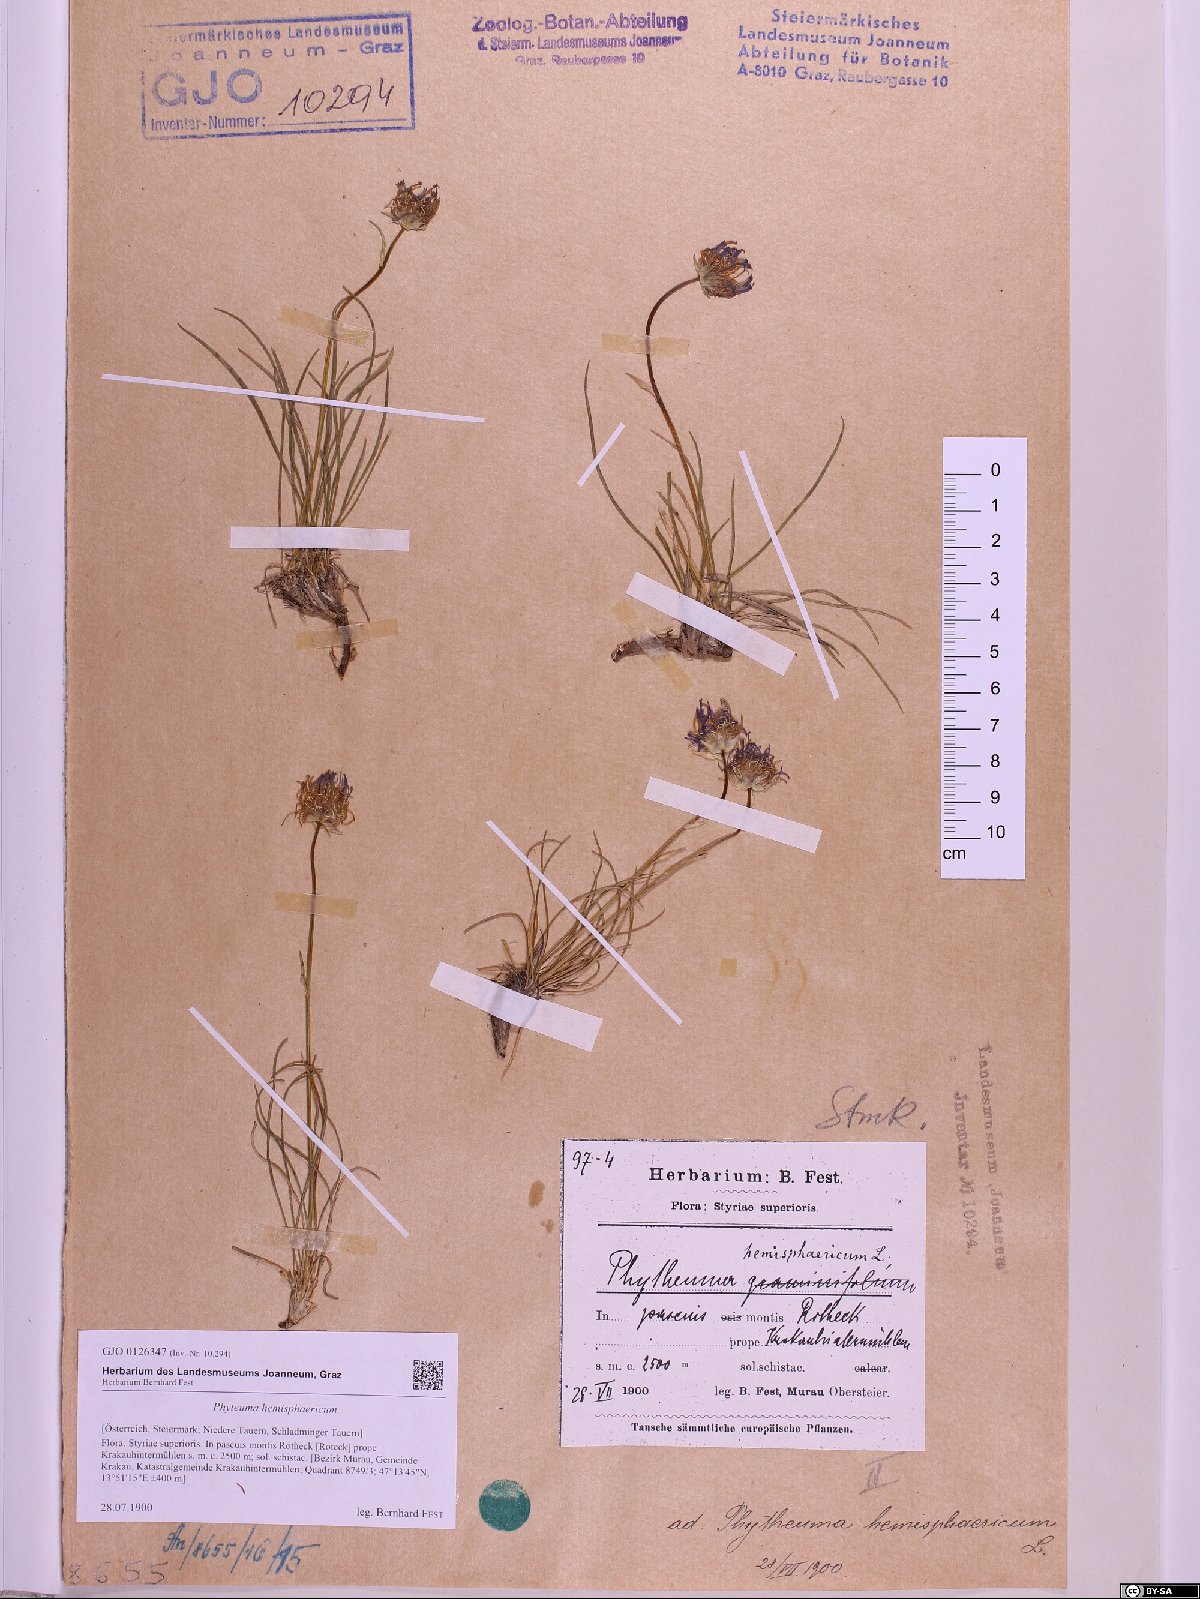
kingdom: Plantae
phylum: Tracheophyta
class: Magnoliopsida
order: Asterales
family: Campanulaceae
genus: Phyteuma
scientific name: Phyteuma hemisphaericum
